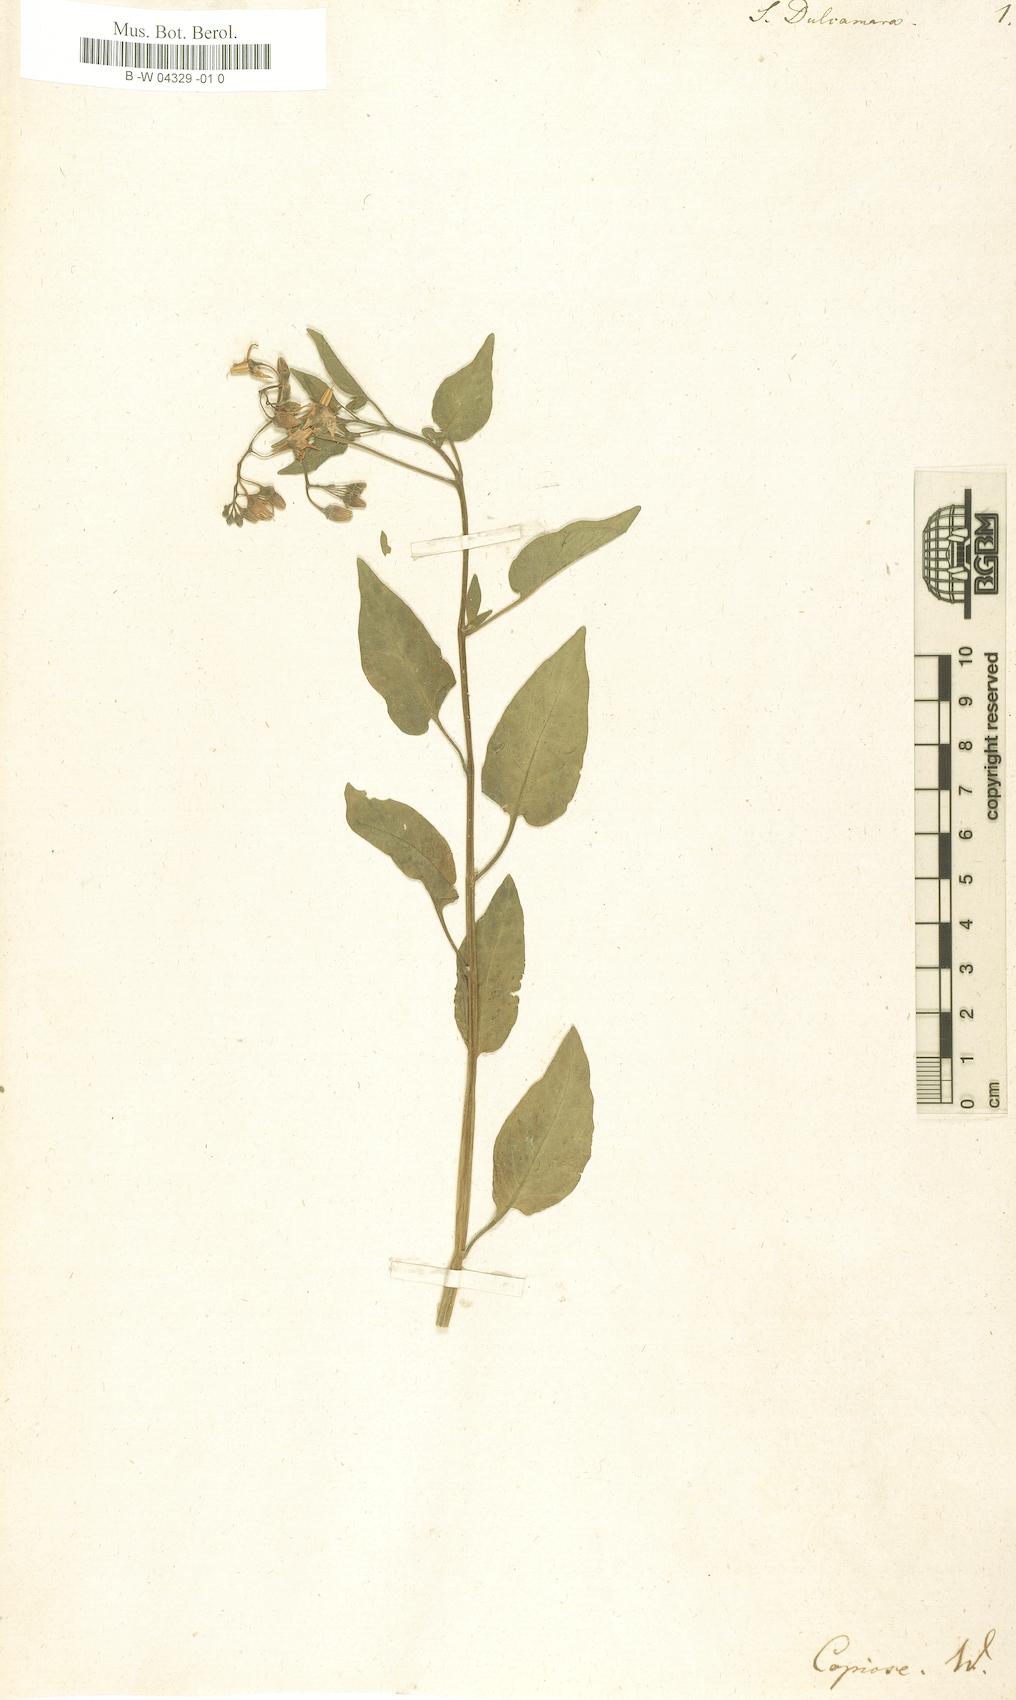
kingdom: Plantae
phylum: Tracheophyta
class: Magnoliopsida
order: Solanales
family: Solanaceae
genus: Solanum
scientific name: Solanum dulcamara
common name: Climbing nightshade
